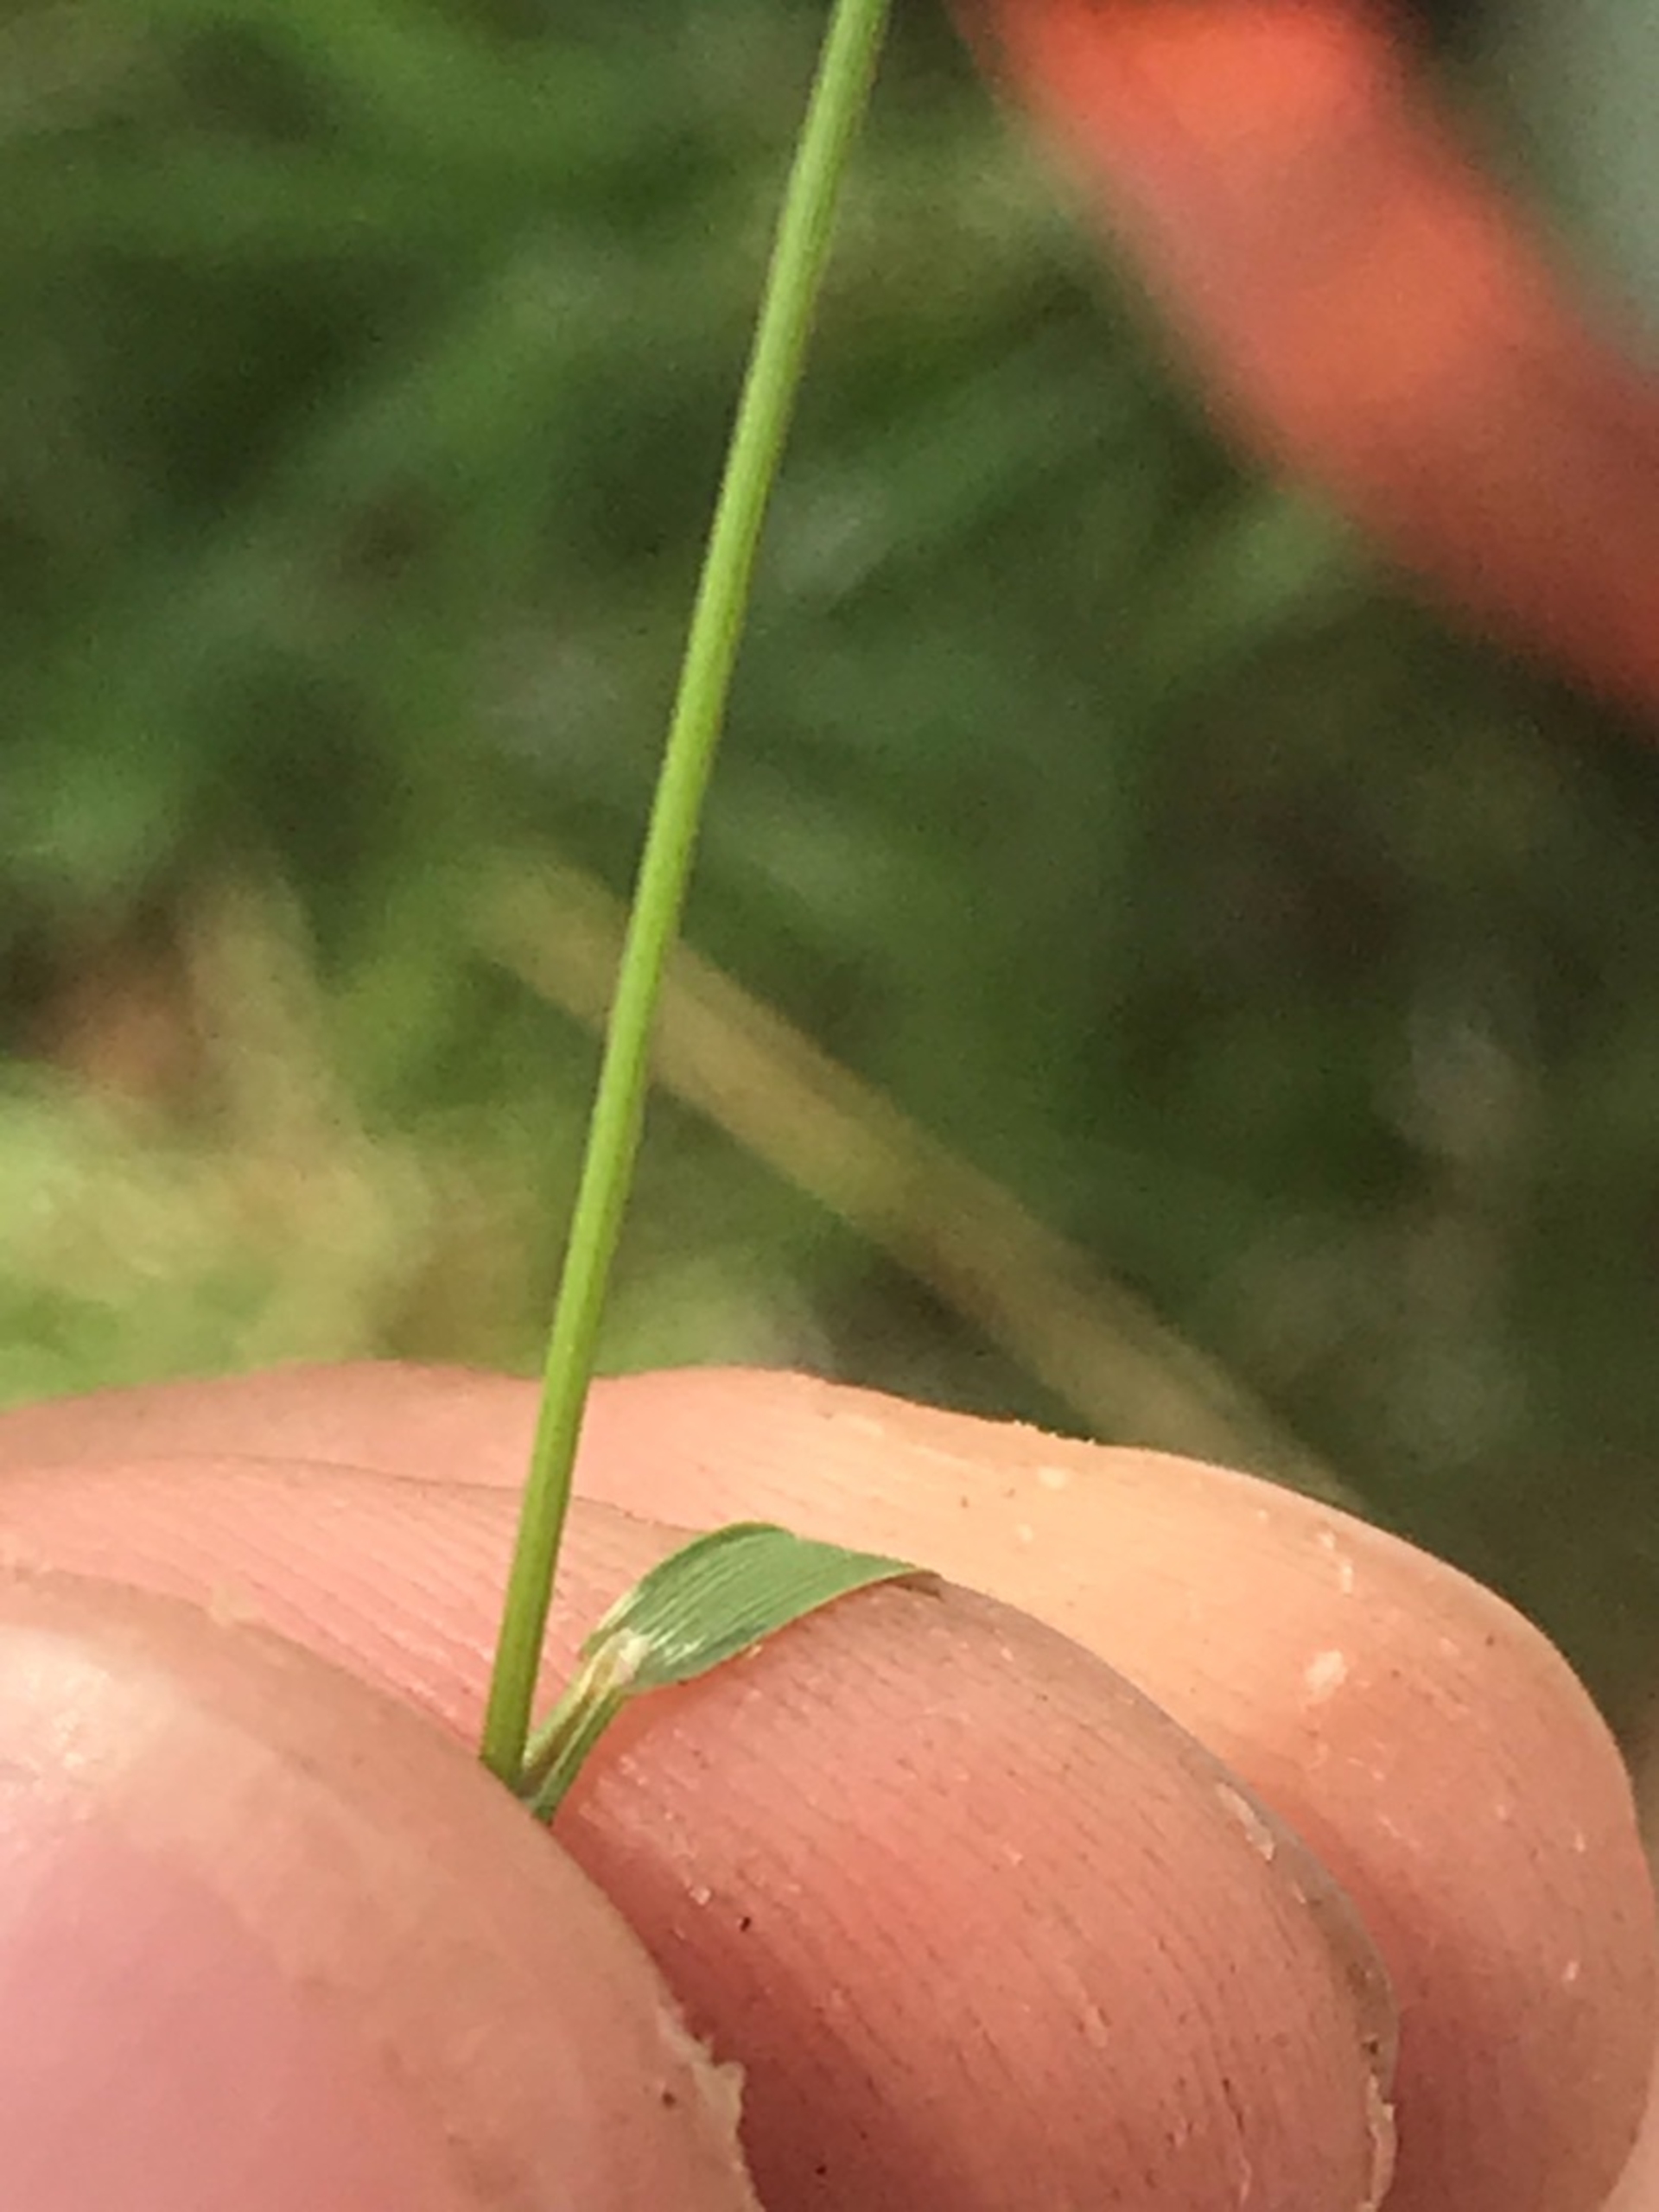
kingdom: Plantae
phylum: Tracheophyta
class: Liliopsida
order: Poales
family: Poaceae
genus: Agrostis
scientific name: Agrostis capillaris
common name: Almindelig hvene
